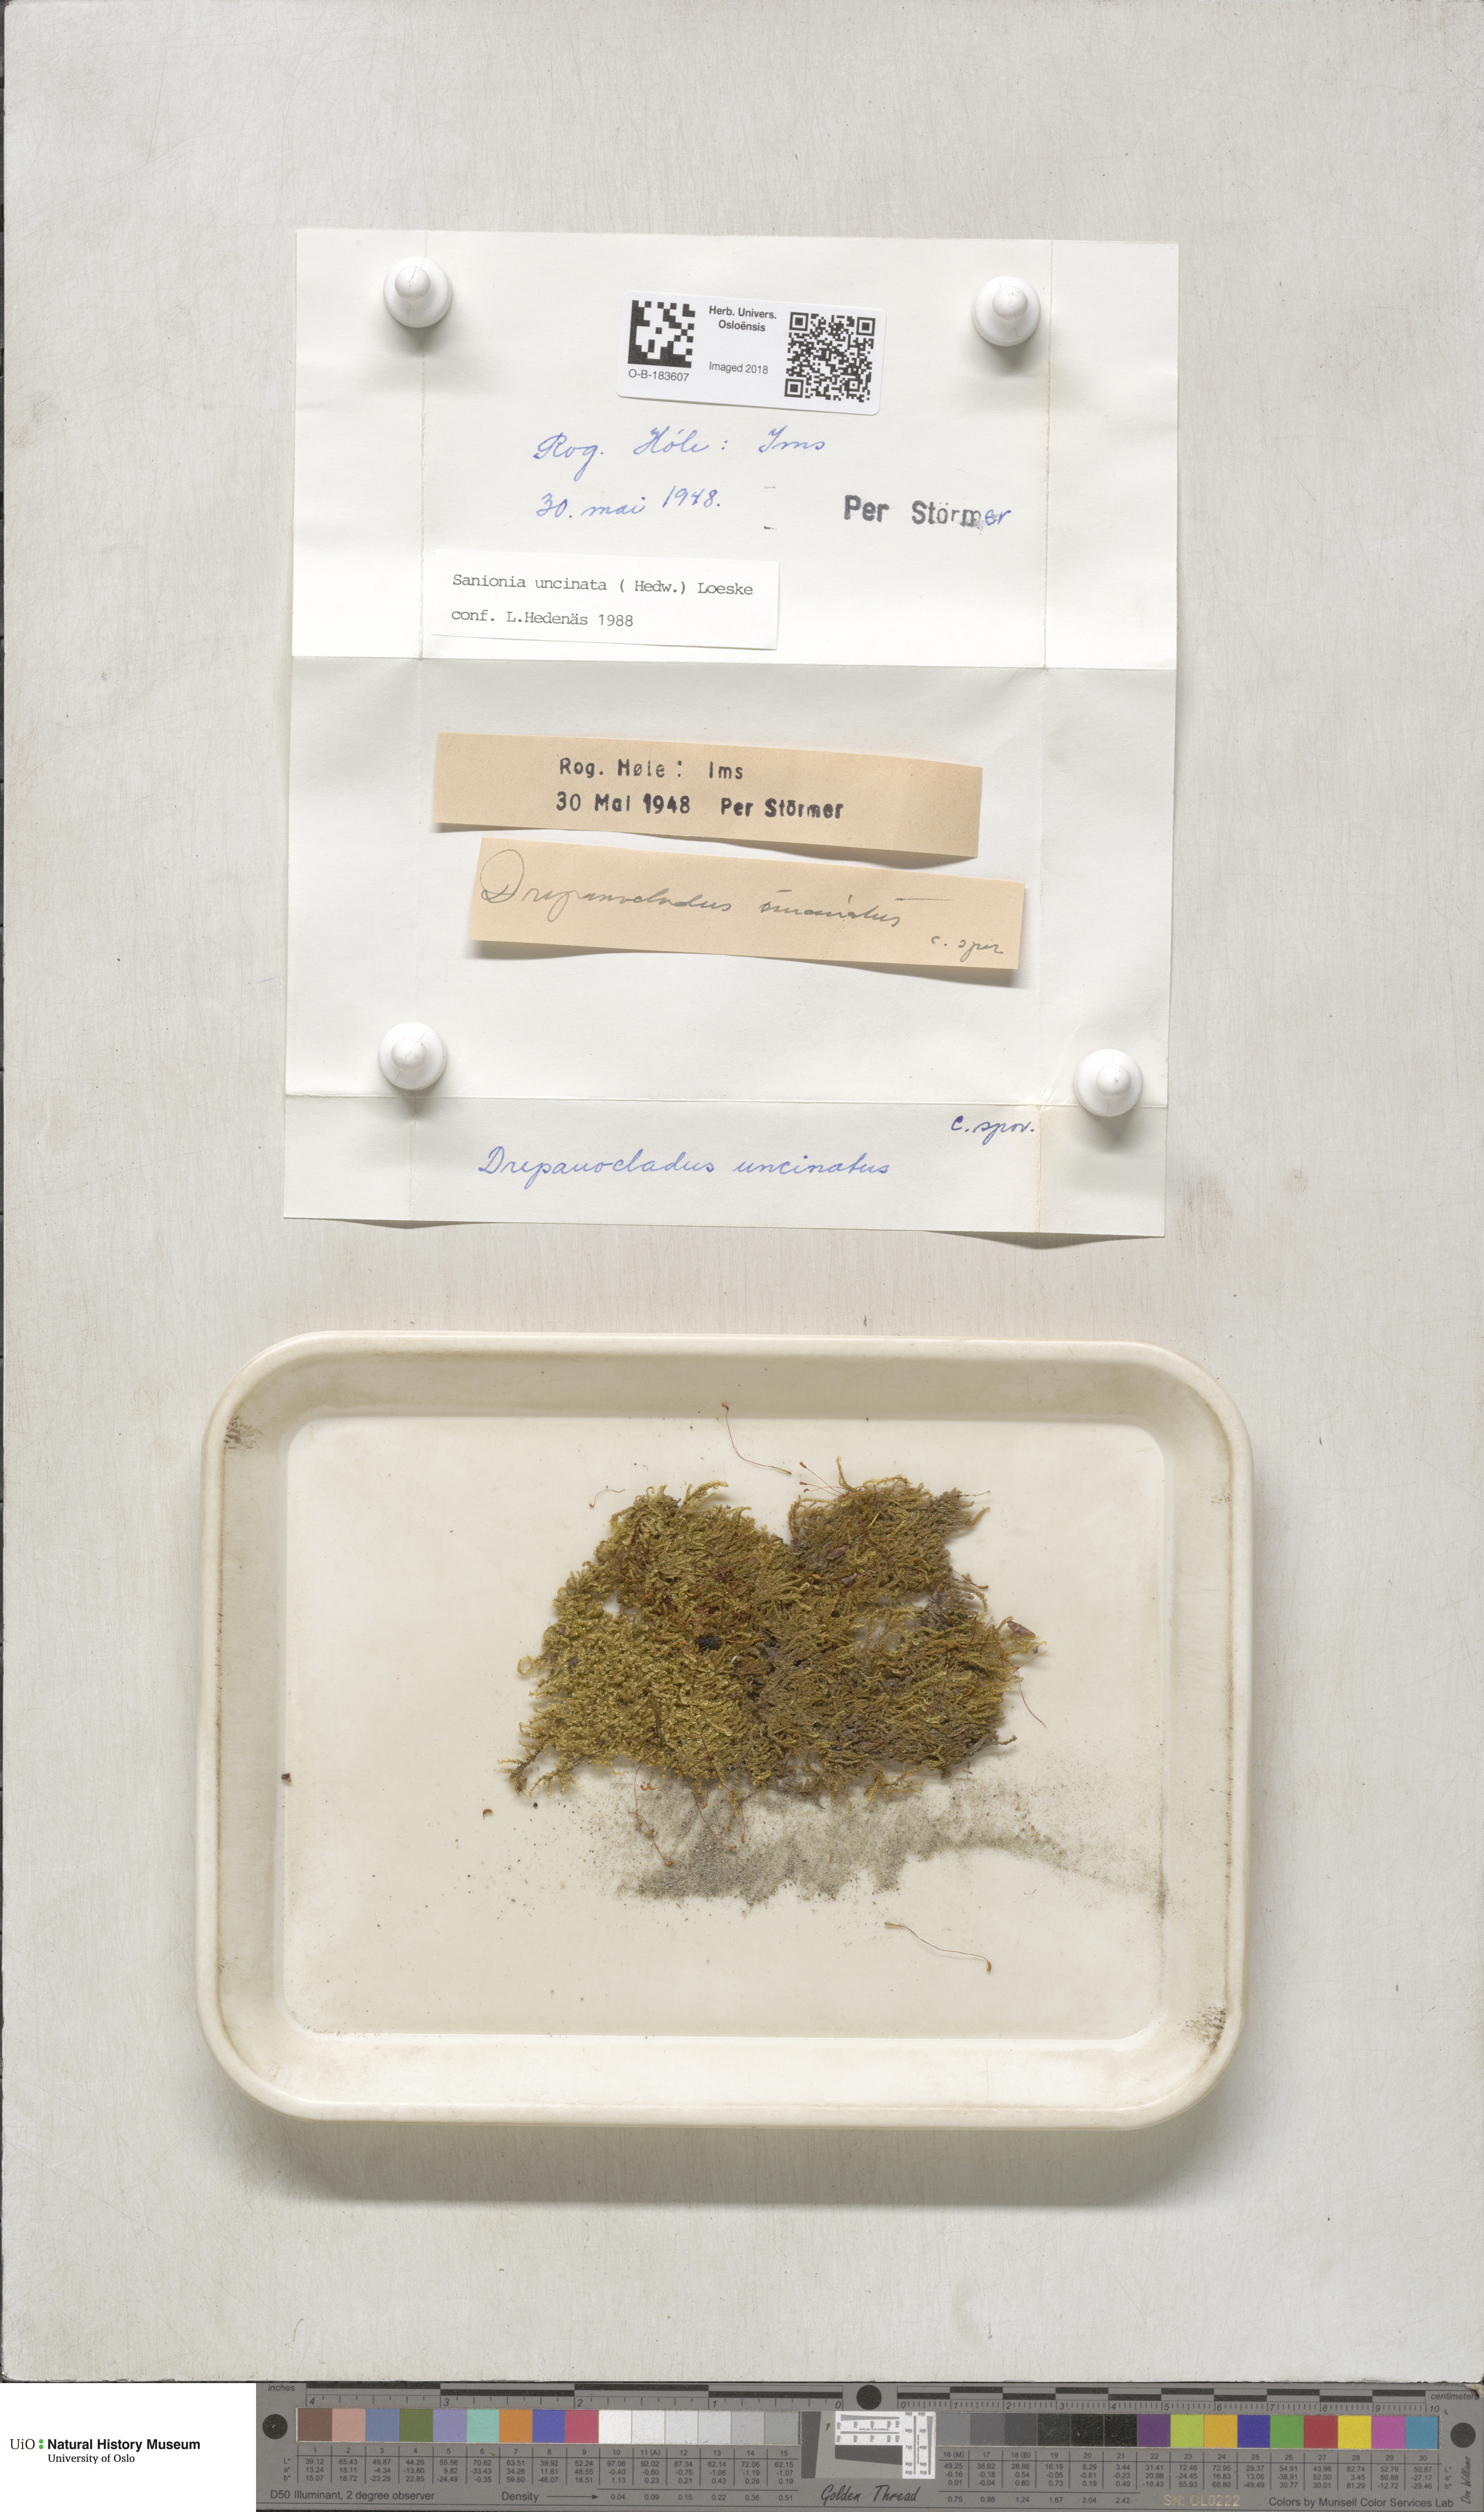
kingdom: Plantae
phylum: Bryophyta
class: Bryopsida
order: Hypnales
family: Scorpidiaceae
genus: Sanionia
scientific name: Sanionia uncinata
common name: Sickle moss
